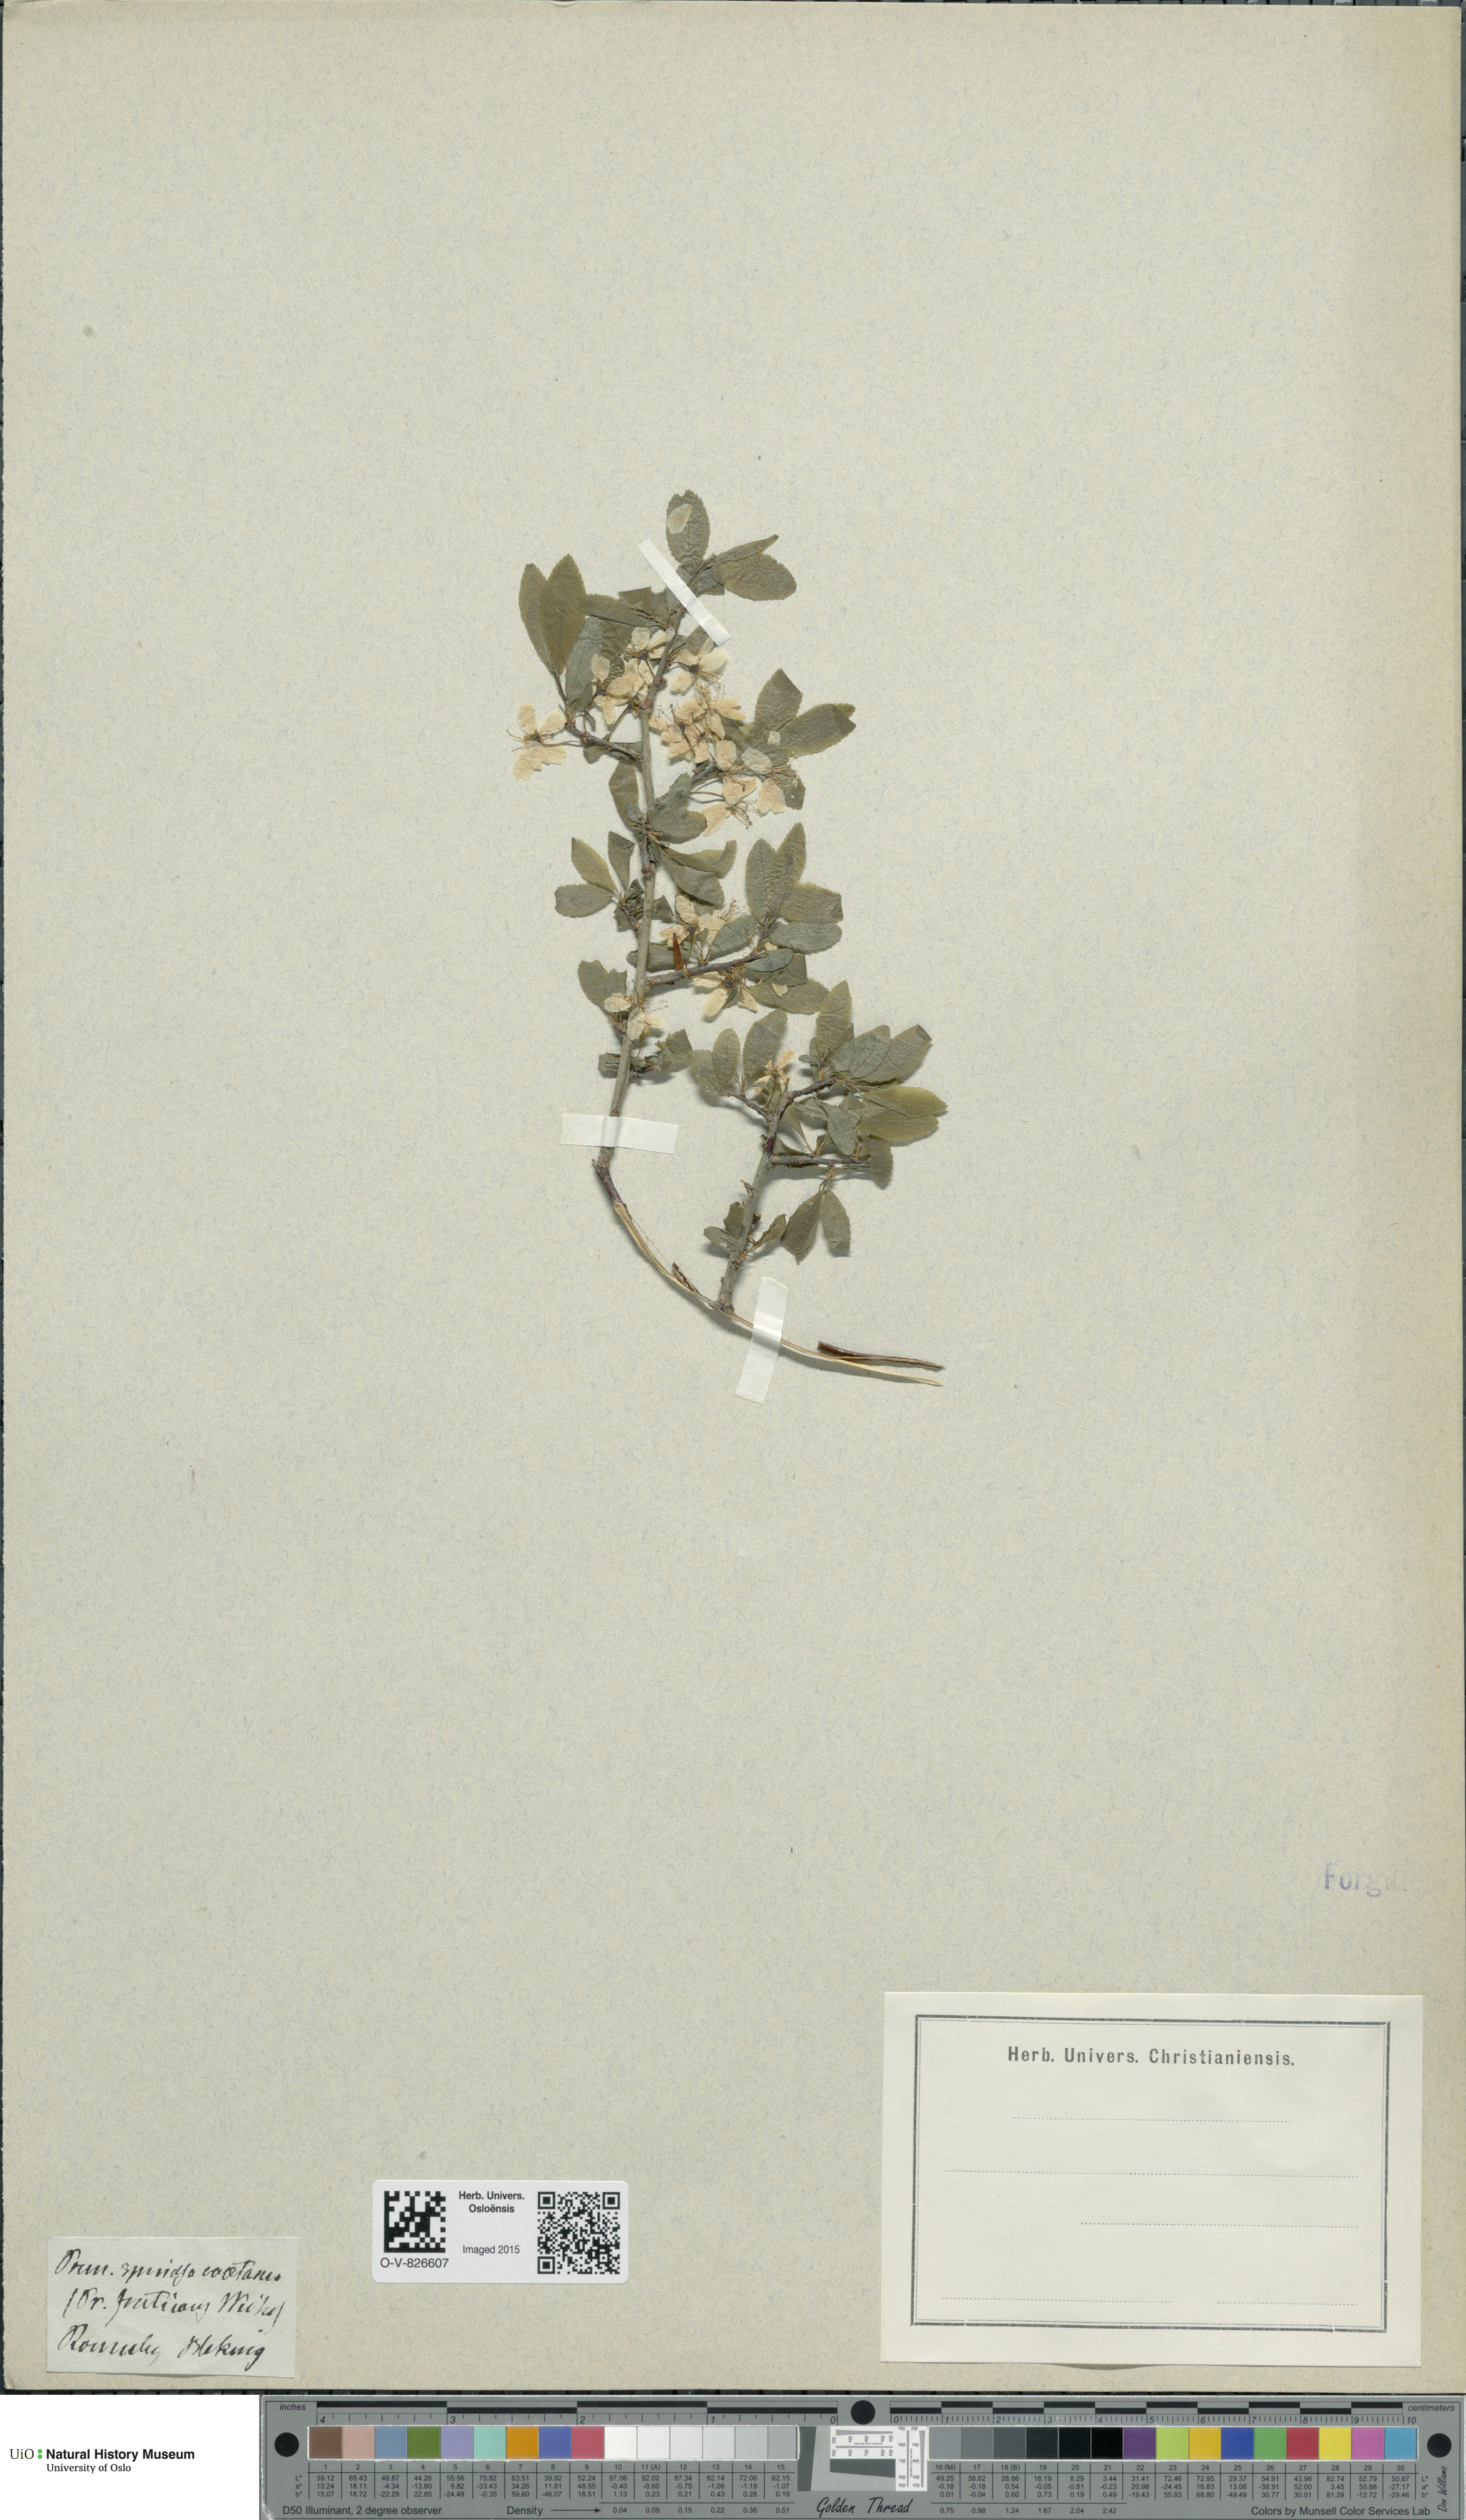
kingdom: Plantae
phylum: Tracheophyta
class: Magnoliopsida
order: Rosales
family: Rosaceae
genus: Prunus
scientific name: Prunus spinosa
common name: Blackthorn
